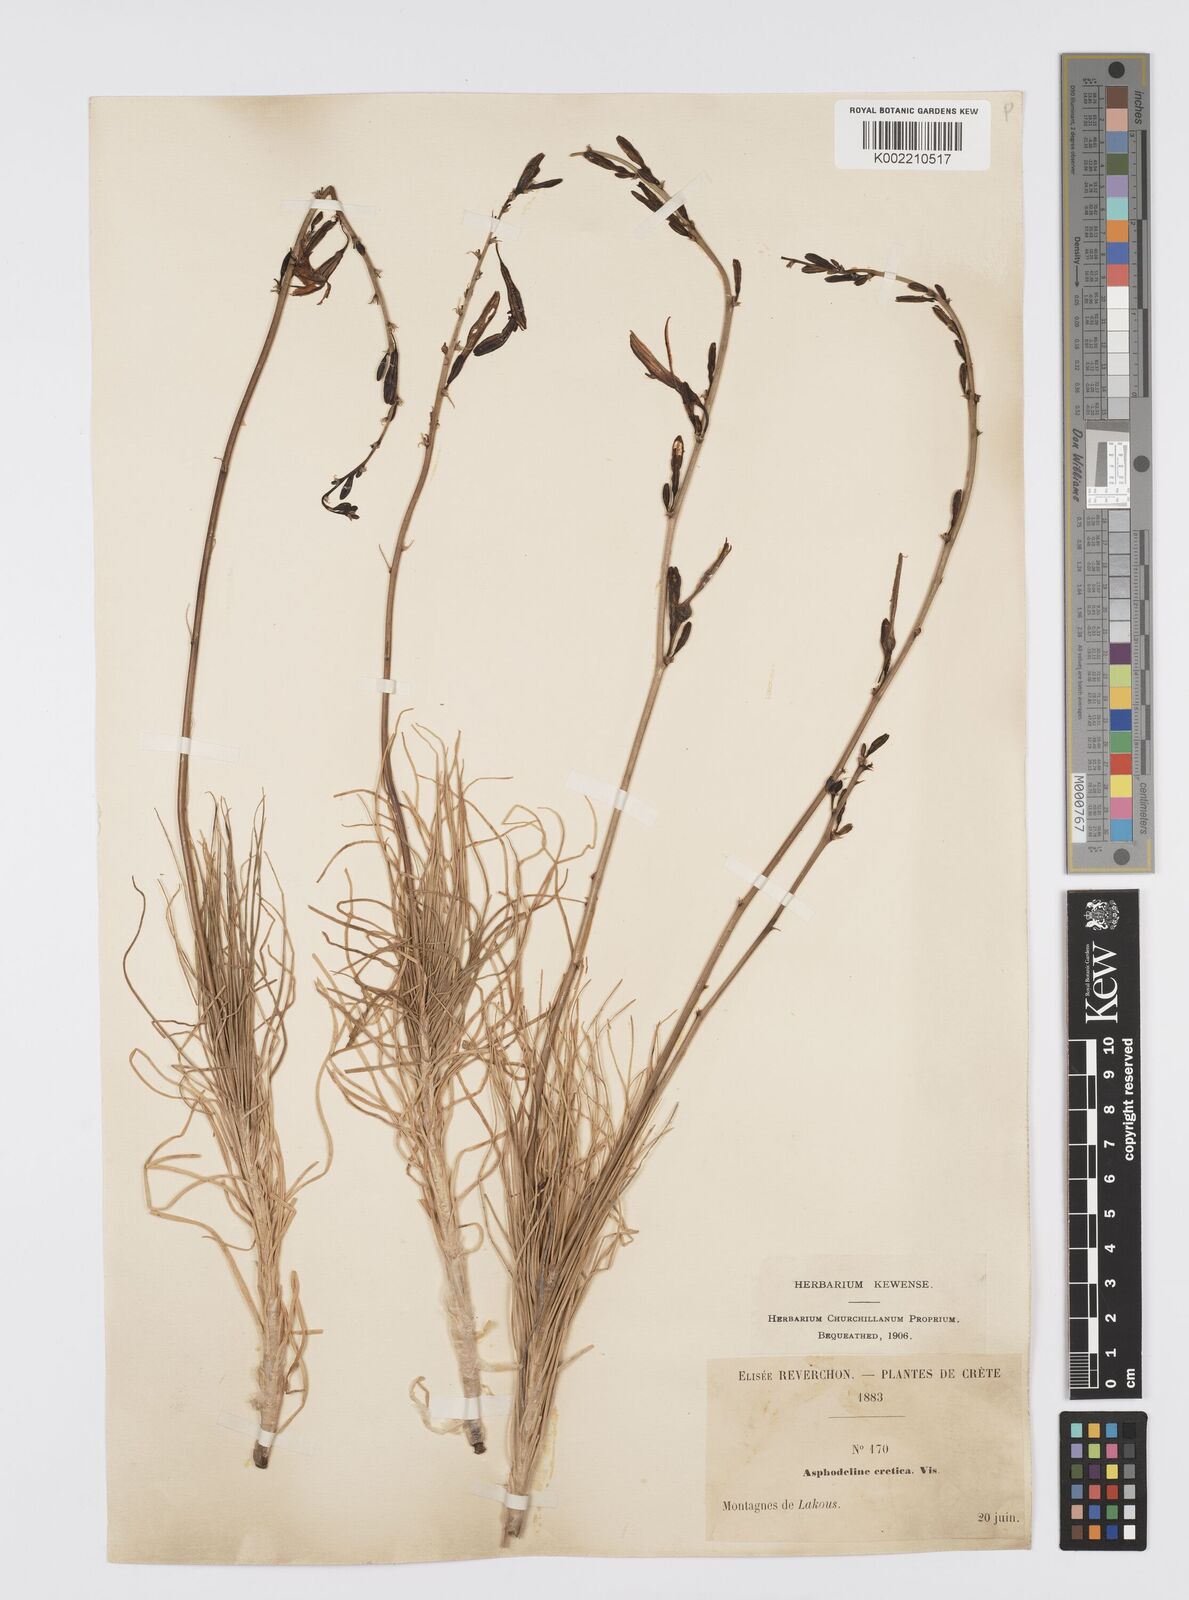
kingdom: Plantae
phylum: Tracheophyta
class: Liliopsida
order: Asparagales
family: Asphodelaceae
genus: Asphodeline
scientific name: Asphodeline liburnica
